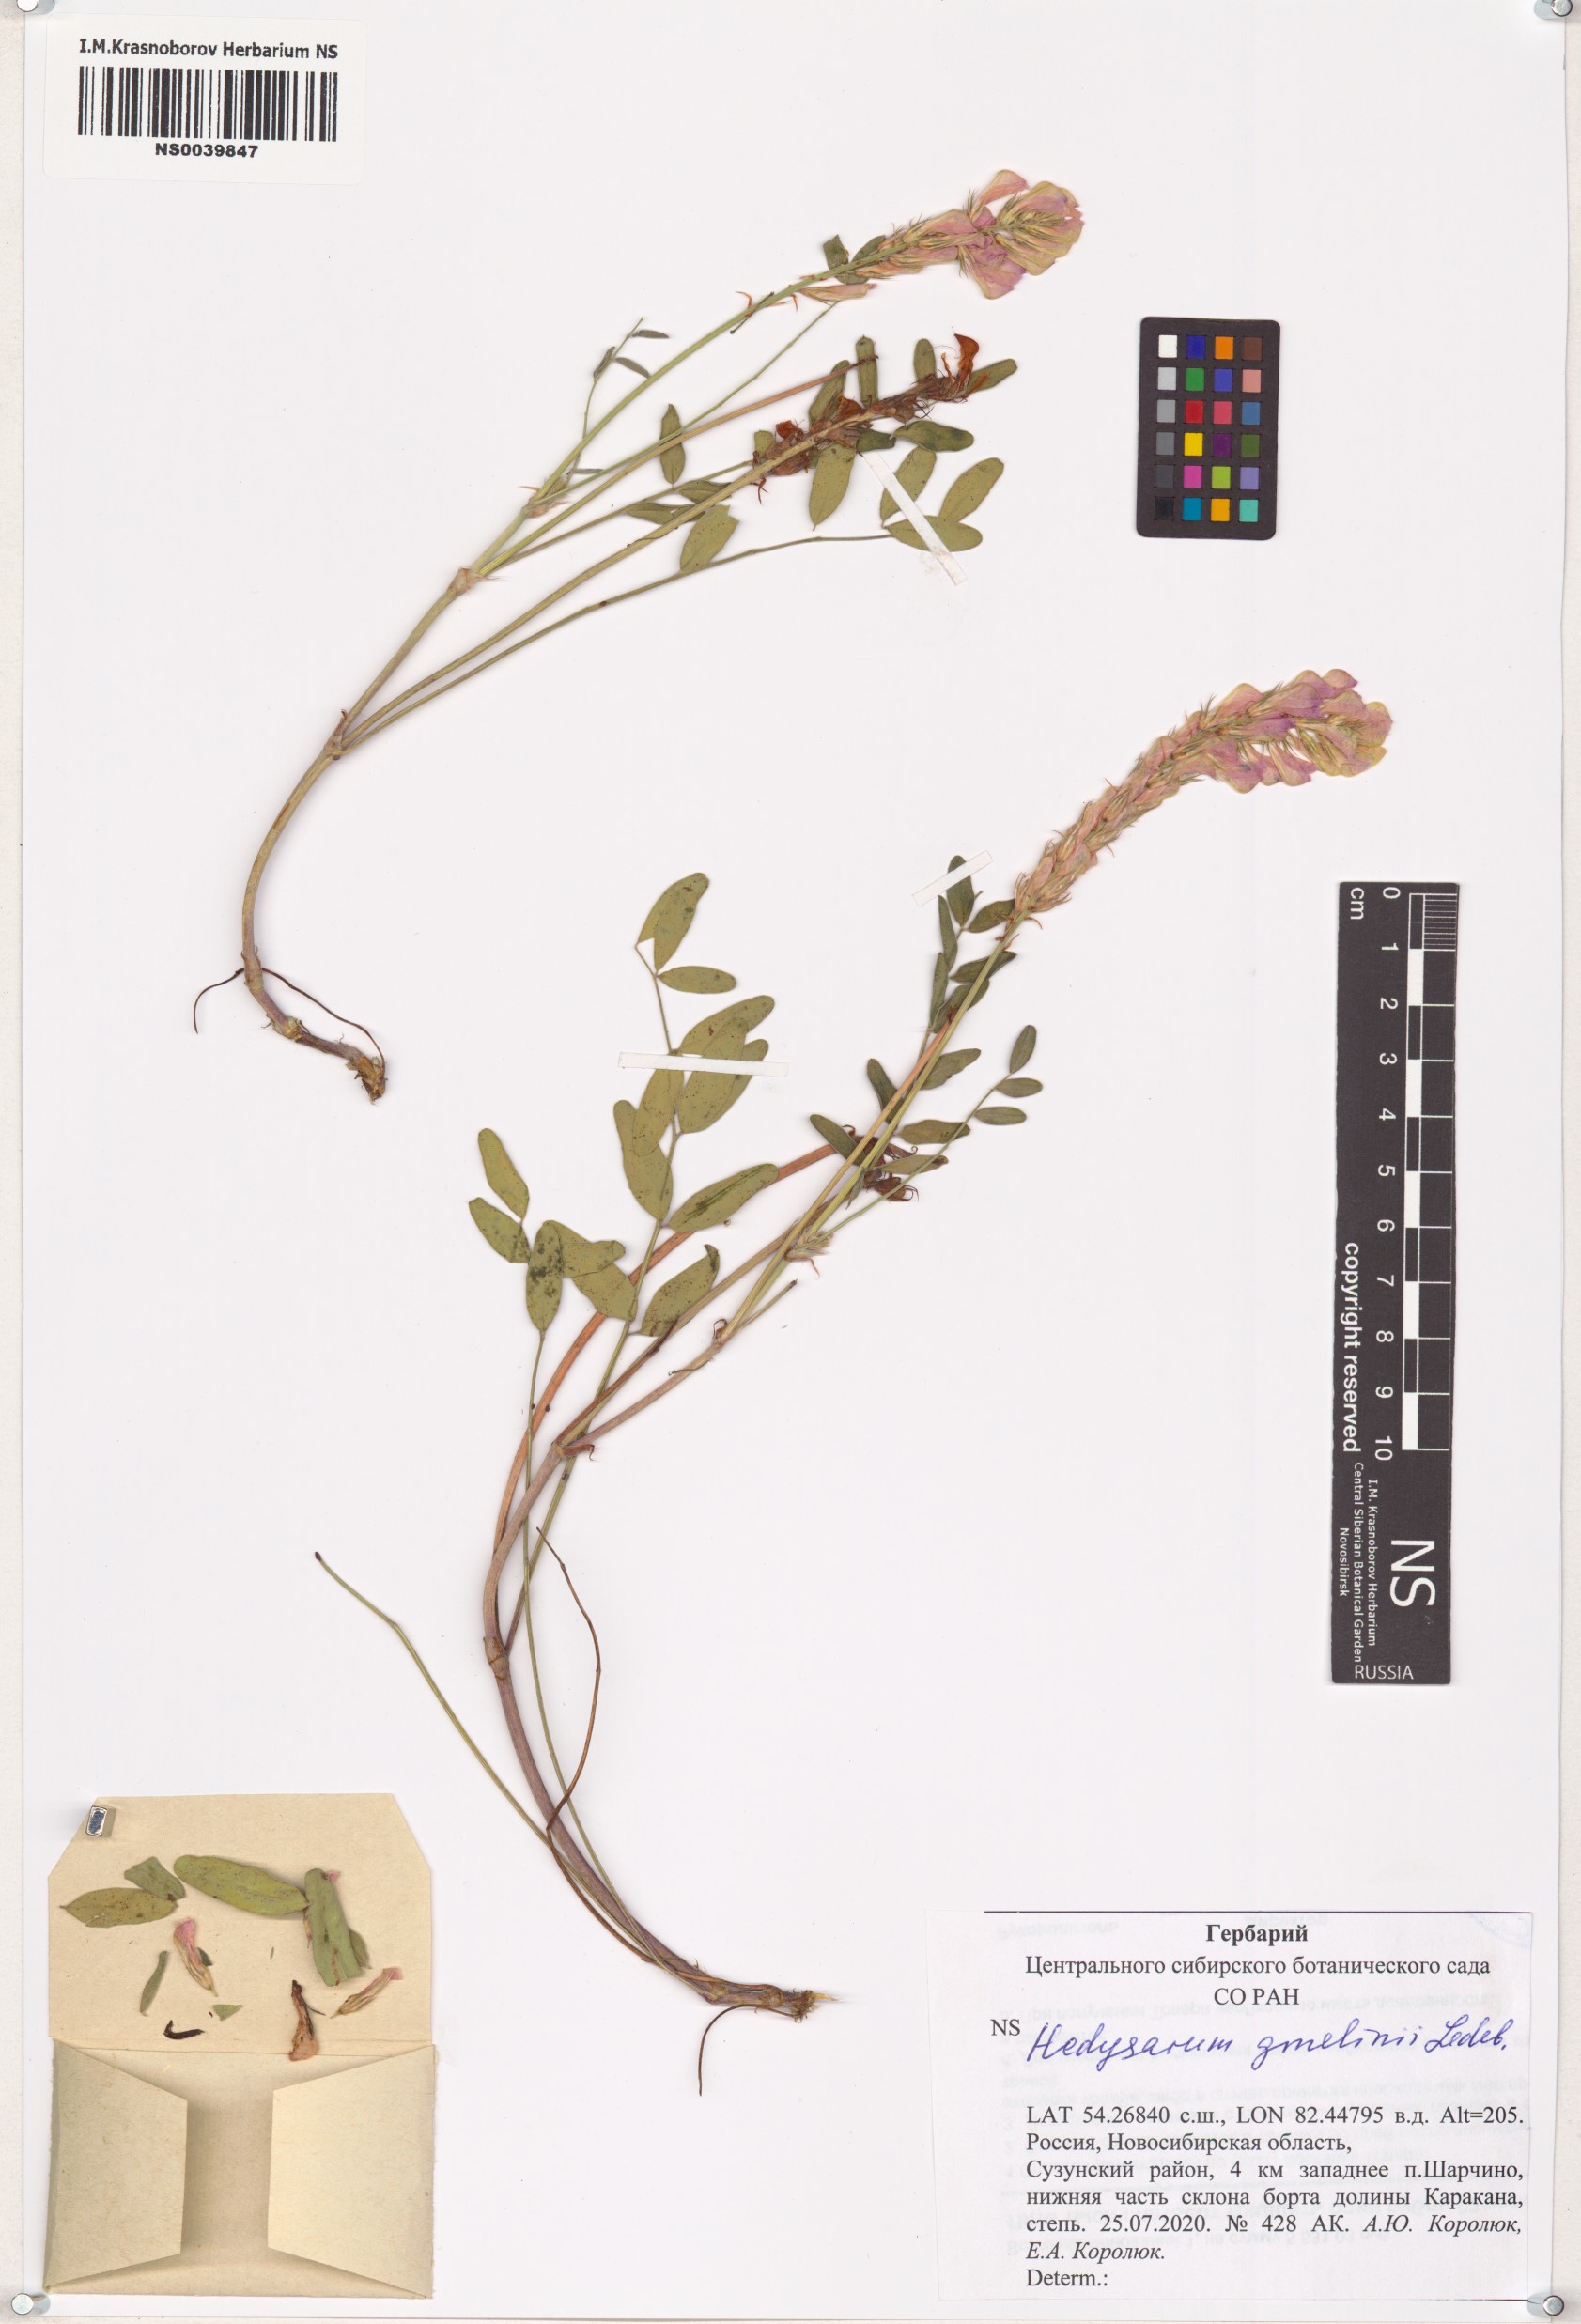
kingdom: Plantae
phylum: Tracheophyta
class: Magnoliopsida
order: Fabales
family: Fabaceae
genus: Hedysarum
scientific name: Hedysarum gmelinii
